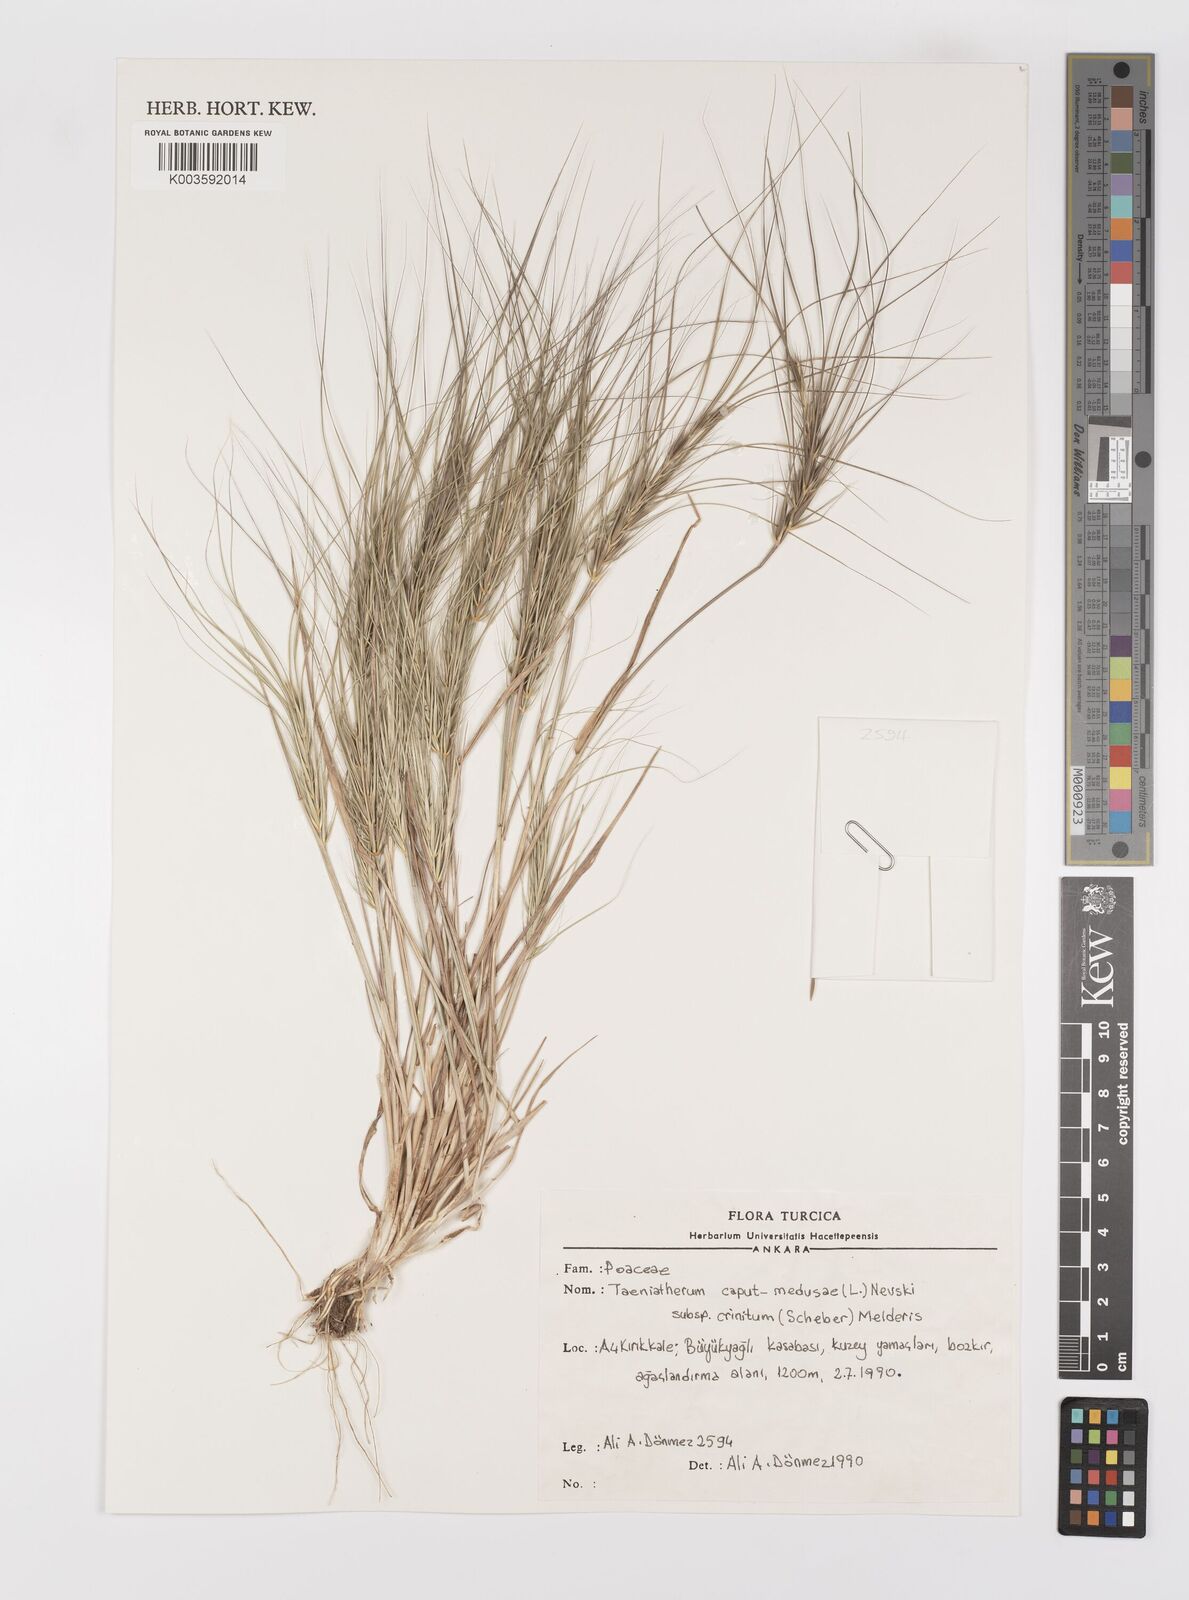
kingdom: Plantae
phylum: Tracheophyta
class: Liliopsida
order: Poales
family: Poaceae
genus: Taeniatherum
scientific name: Taeniatherum caput-medusae
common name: Medusahead
